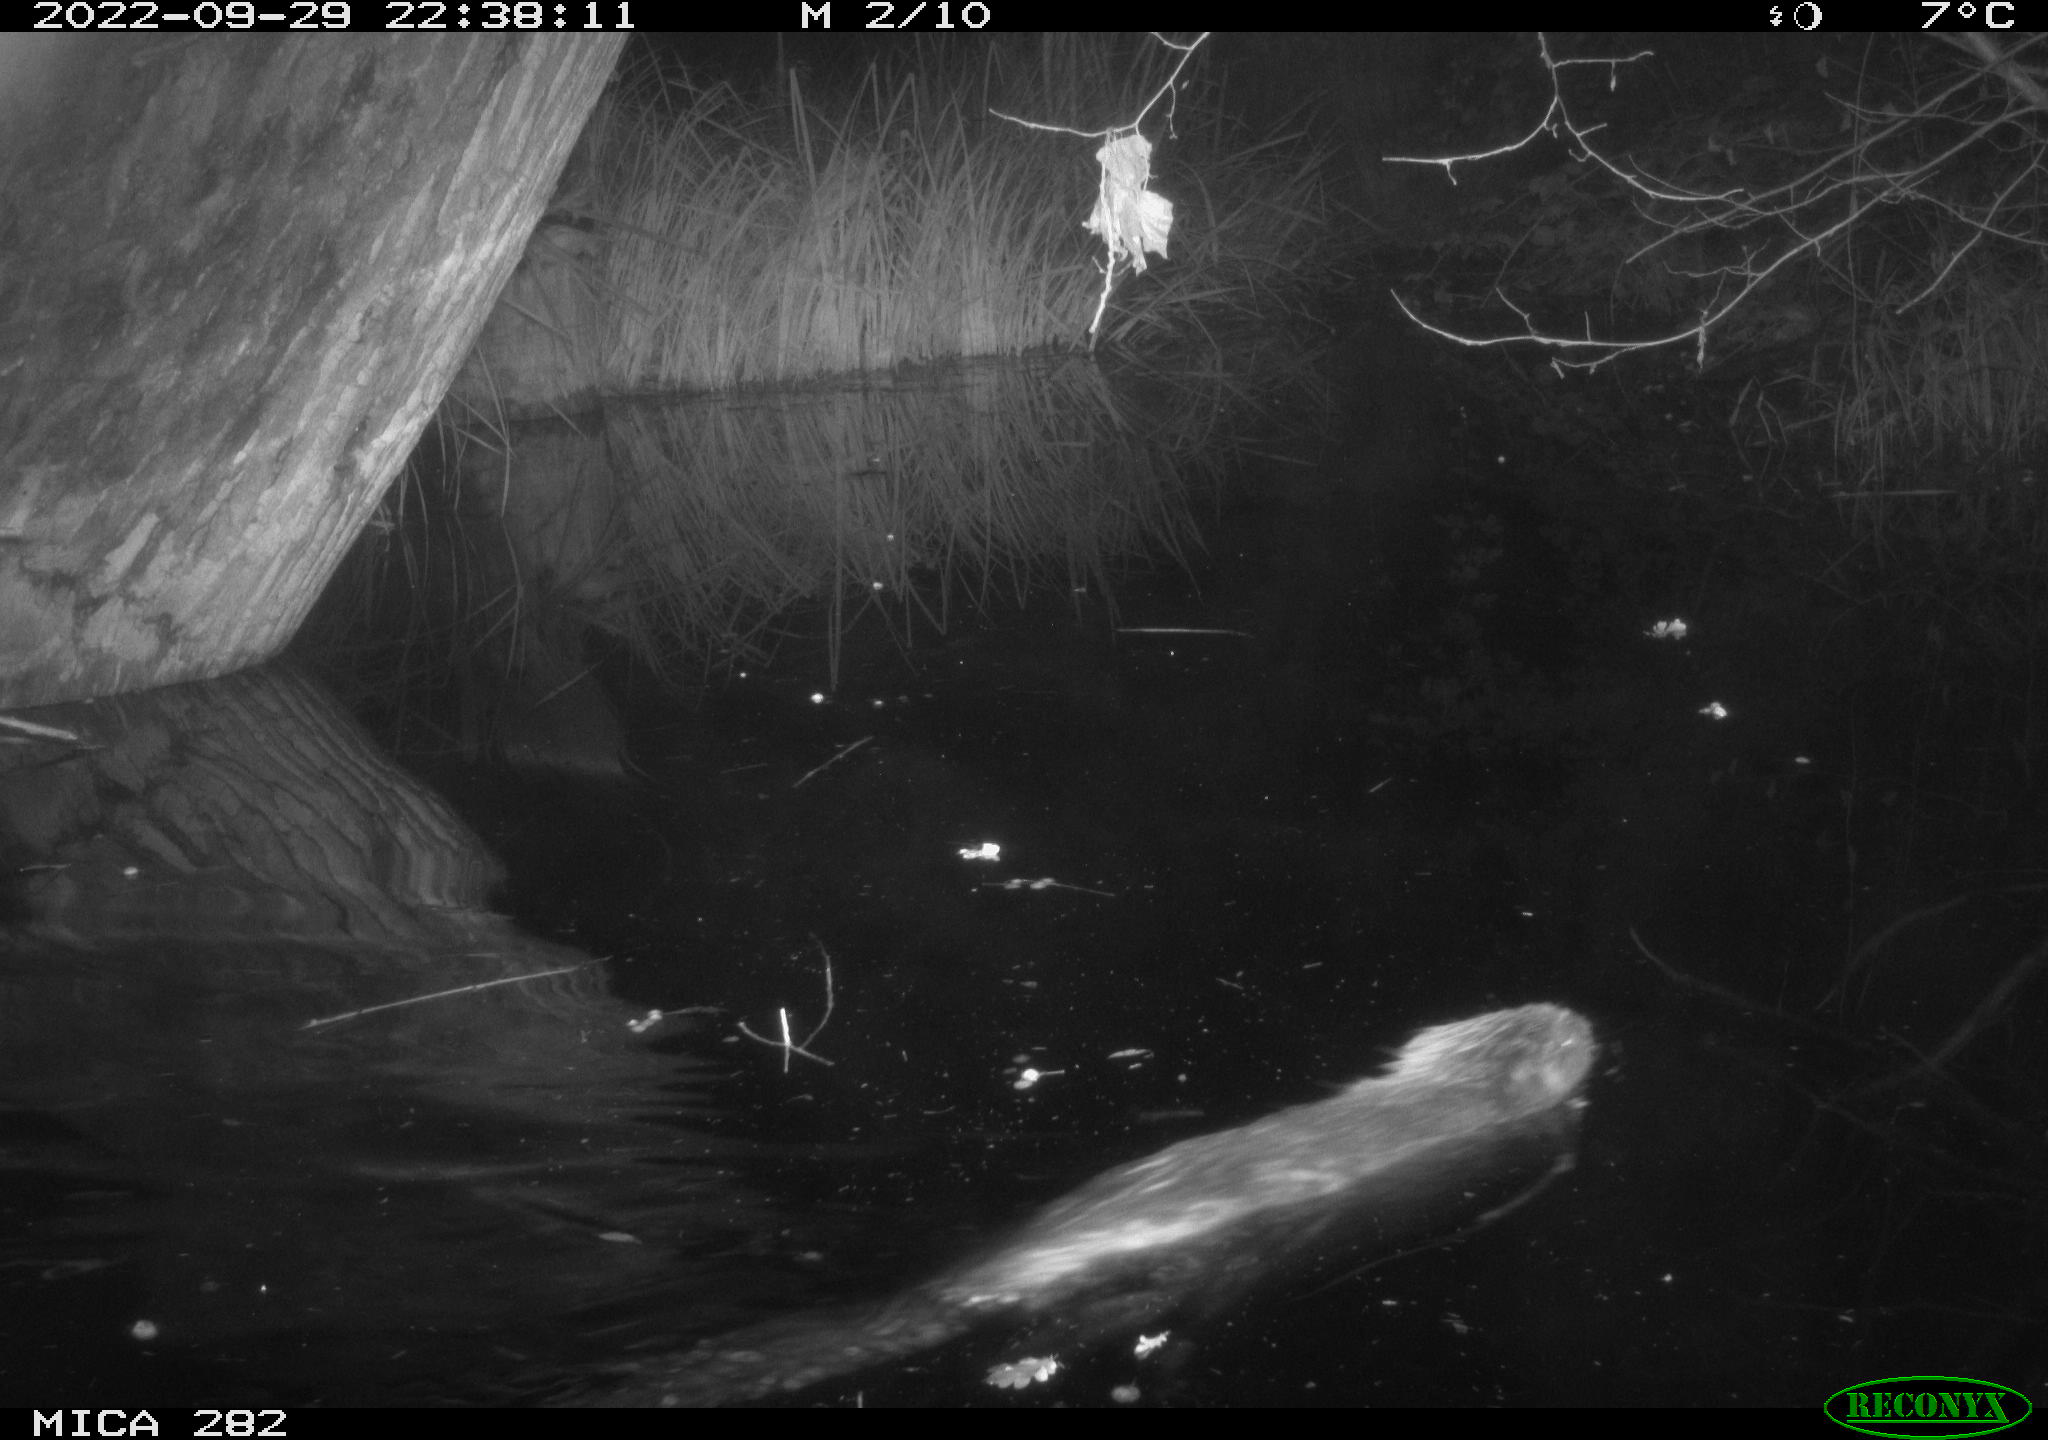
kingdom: Animalia
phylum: Chordata
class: Mammalia
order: Rodentia
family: Castoridae
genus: Castor
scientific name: Castor fiber
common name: Eurasian beaver
